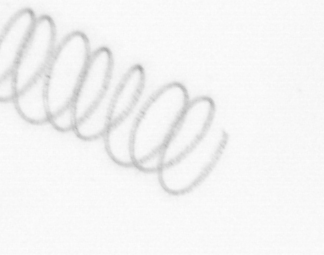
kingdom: Chromista
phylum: Ochrophyta
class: Bacillariophyceae
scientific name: Bacillariophyceae
